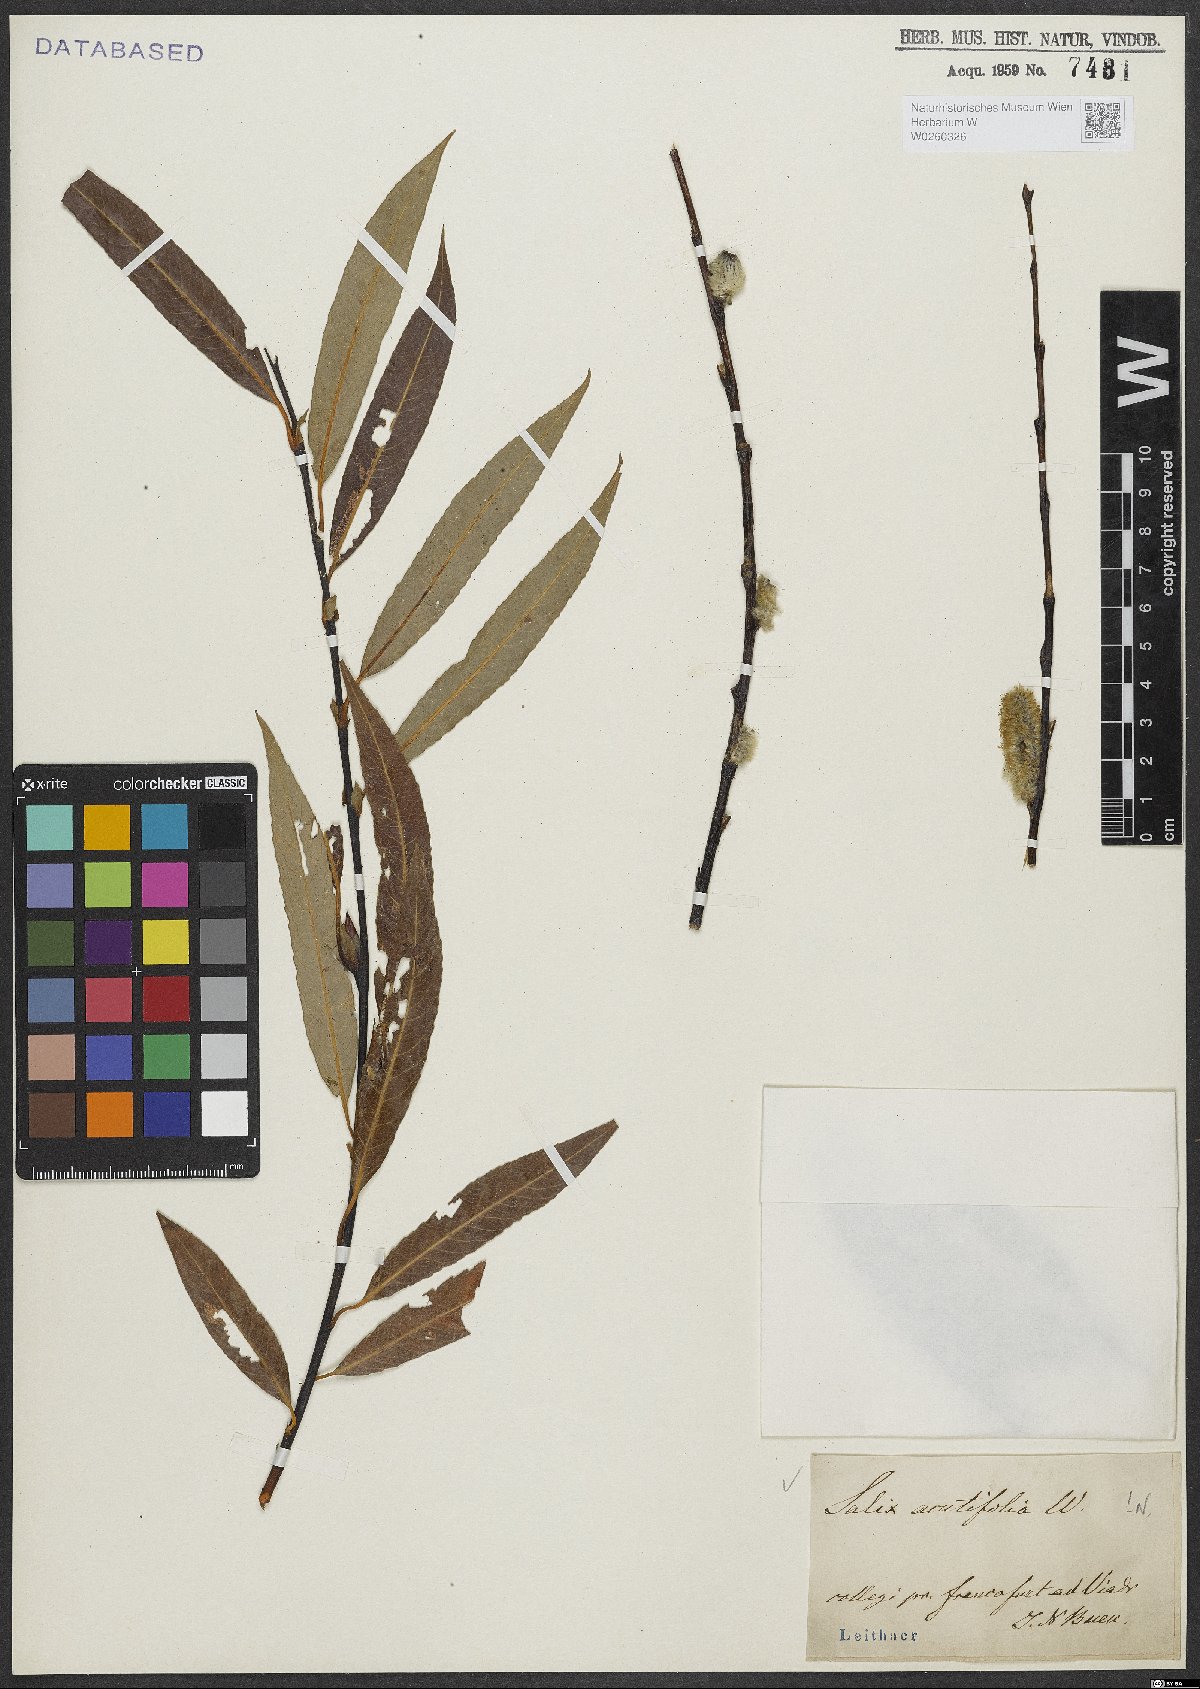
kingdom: Plantae
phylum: Tracheophyta
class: Magnoliopsida
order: Malpighiales
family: Salicaceae
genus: Salix
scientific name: Salix acutifolia
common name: Siberian violet-willow
